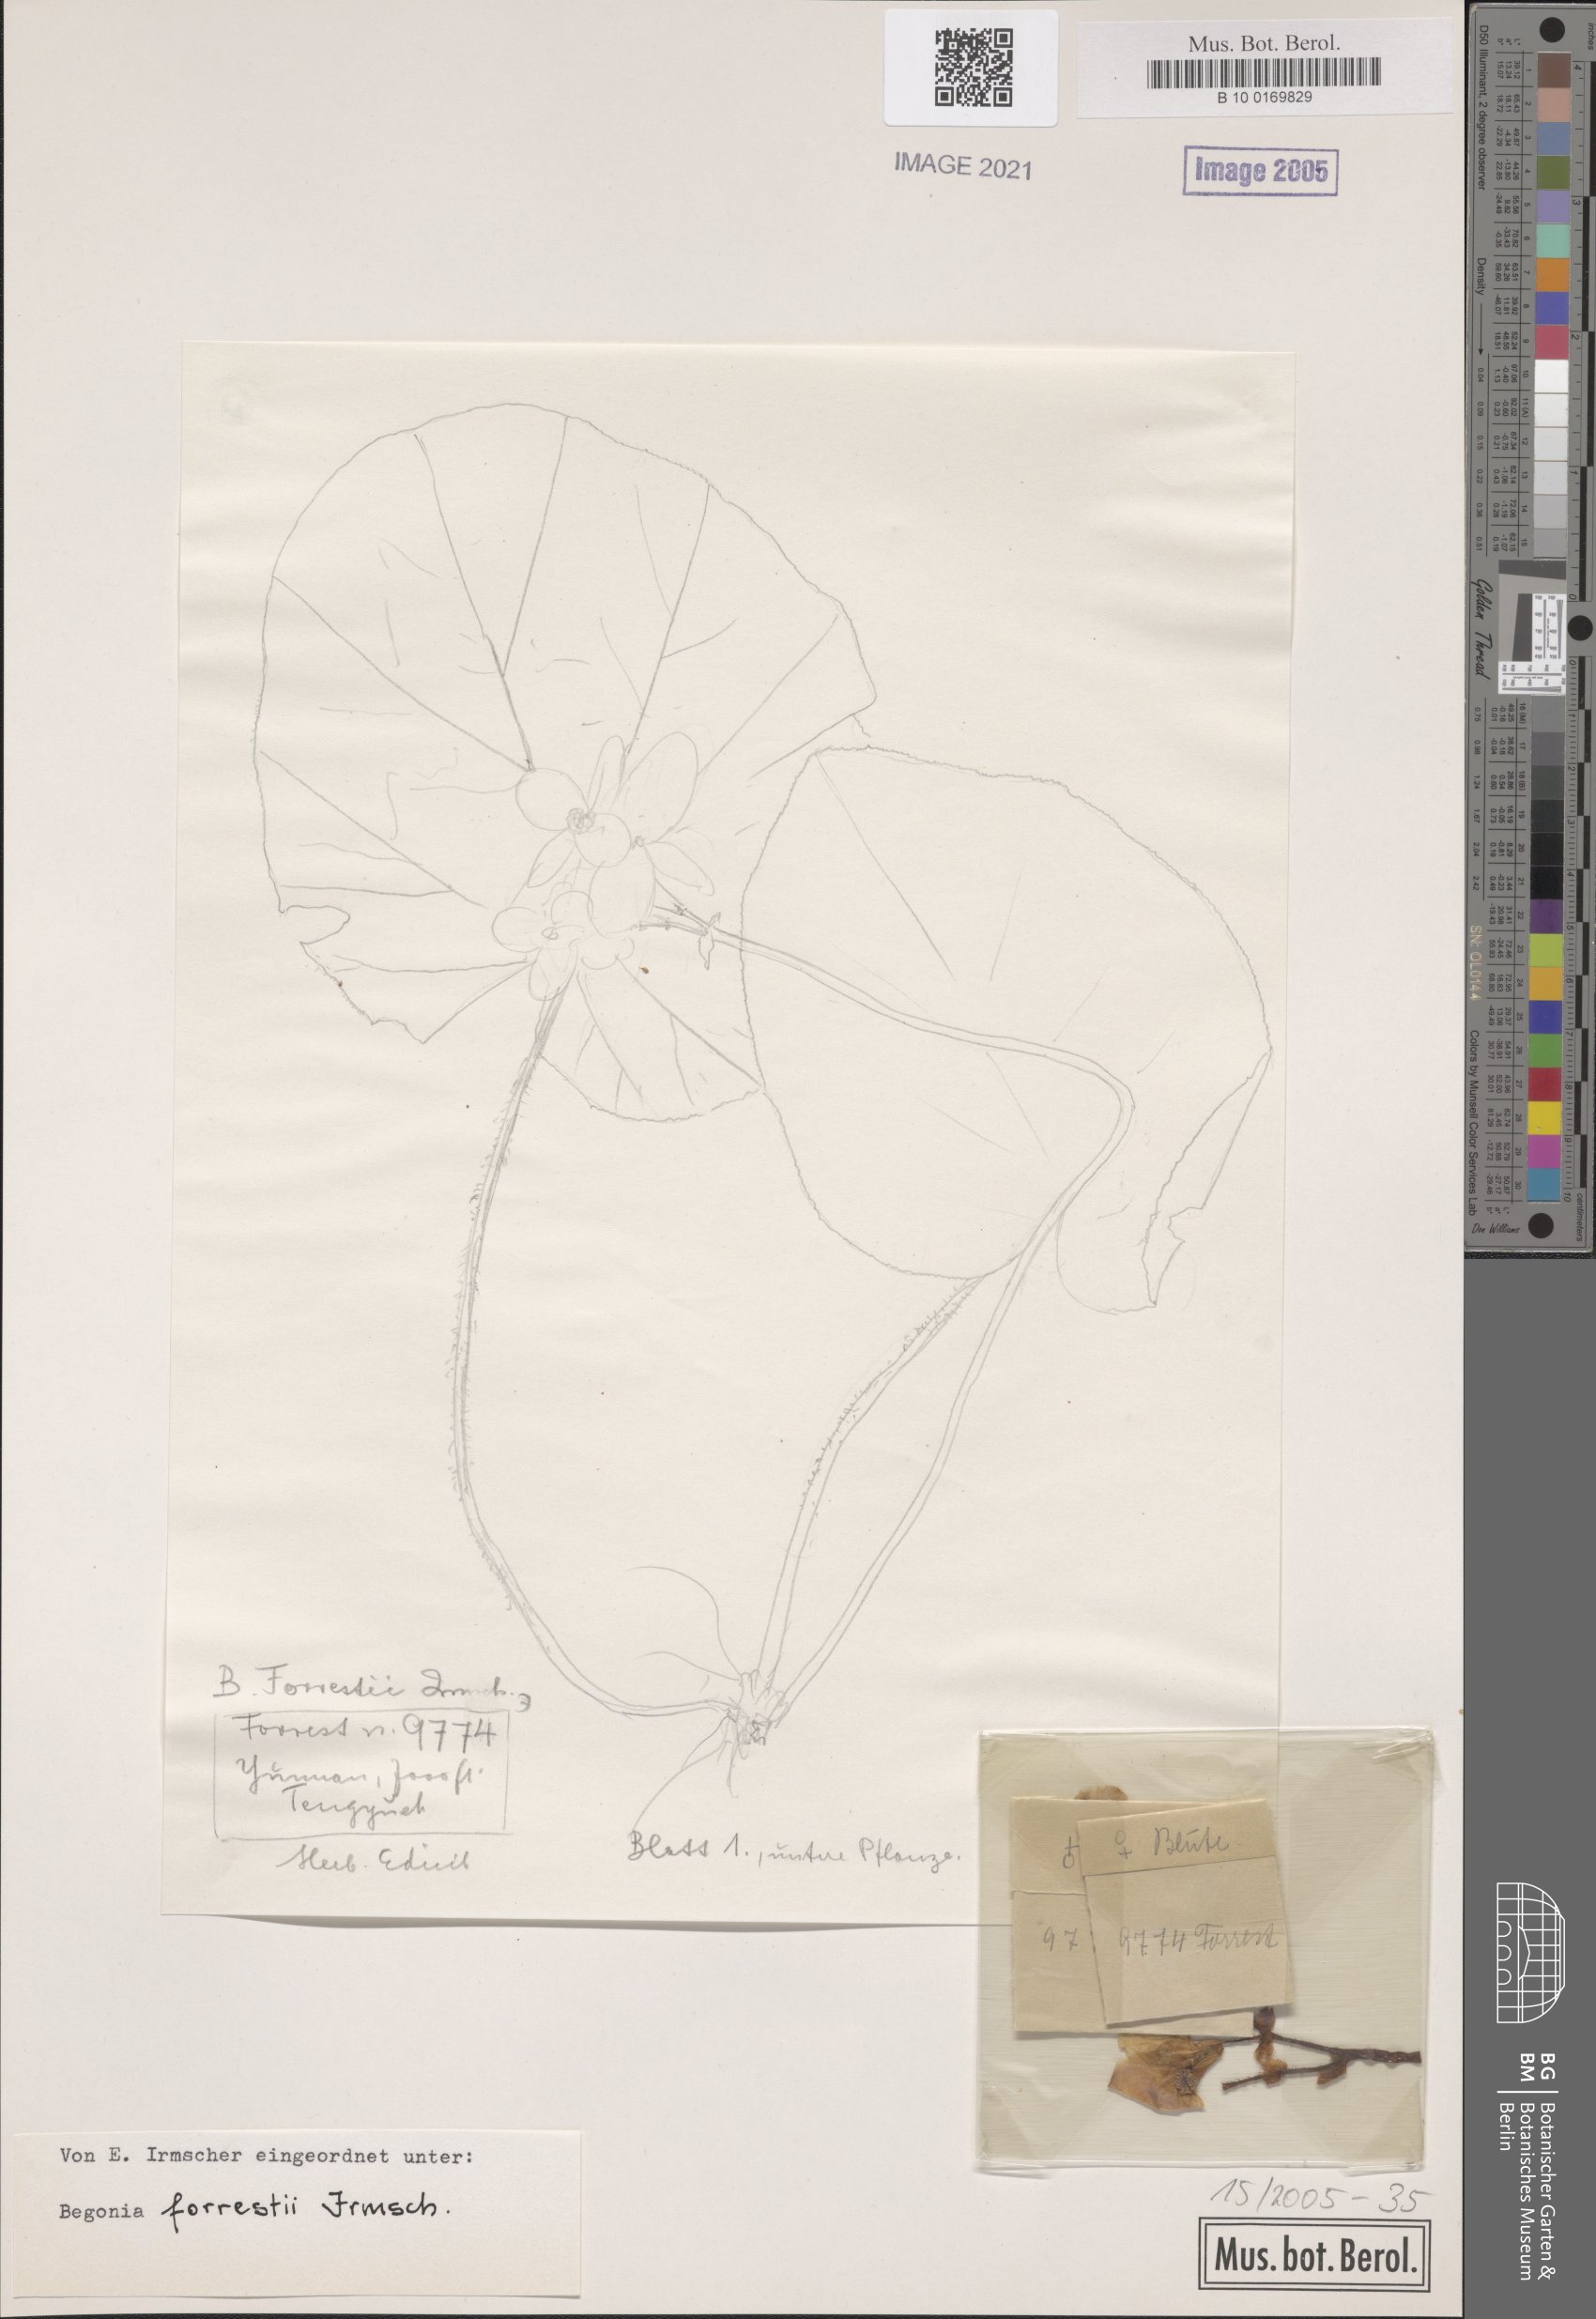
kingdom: Plantae
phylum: Tracheophyta
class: Magnoliopsida
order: Cucurbitales
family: Begoniaceae
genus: Begonia
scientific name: Begonia forrestii
